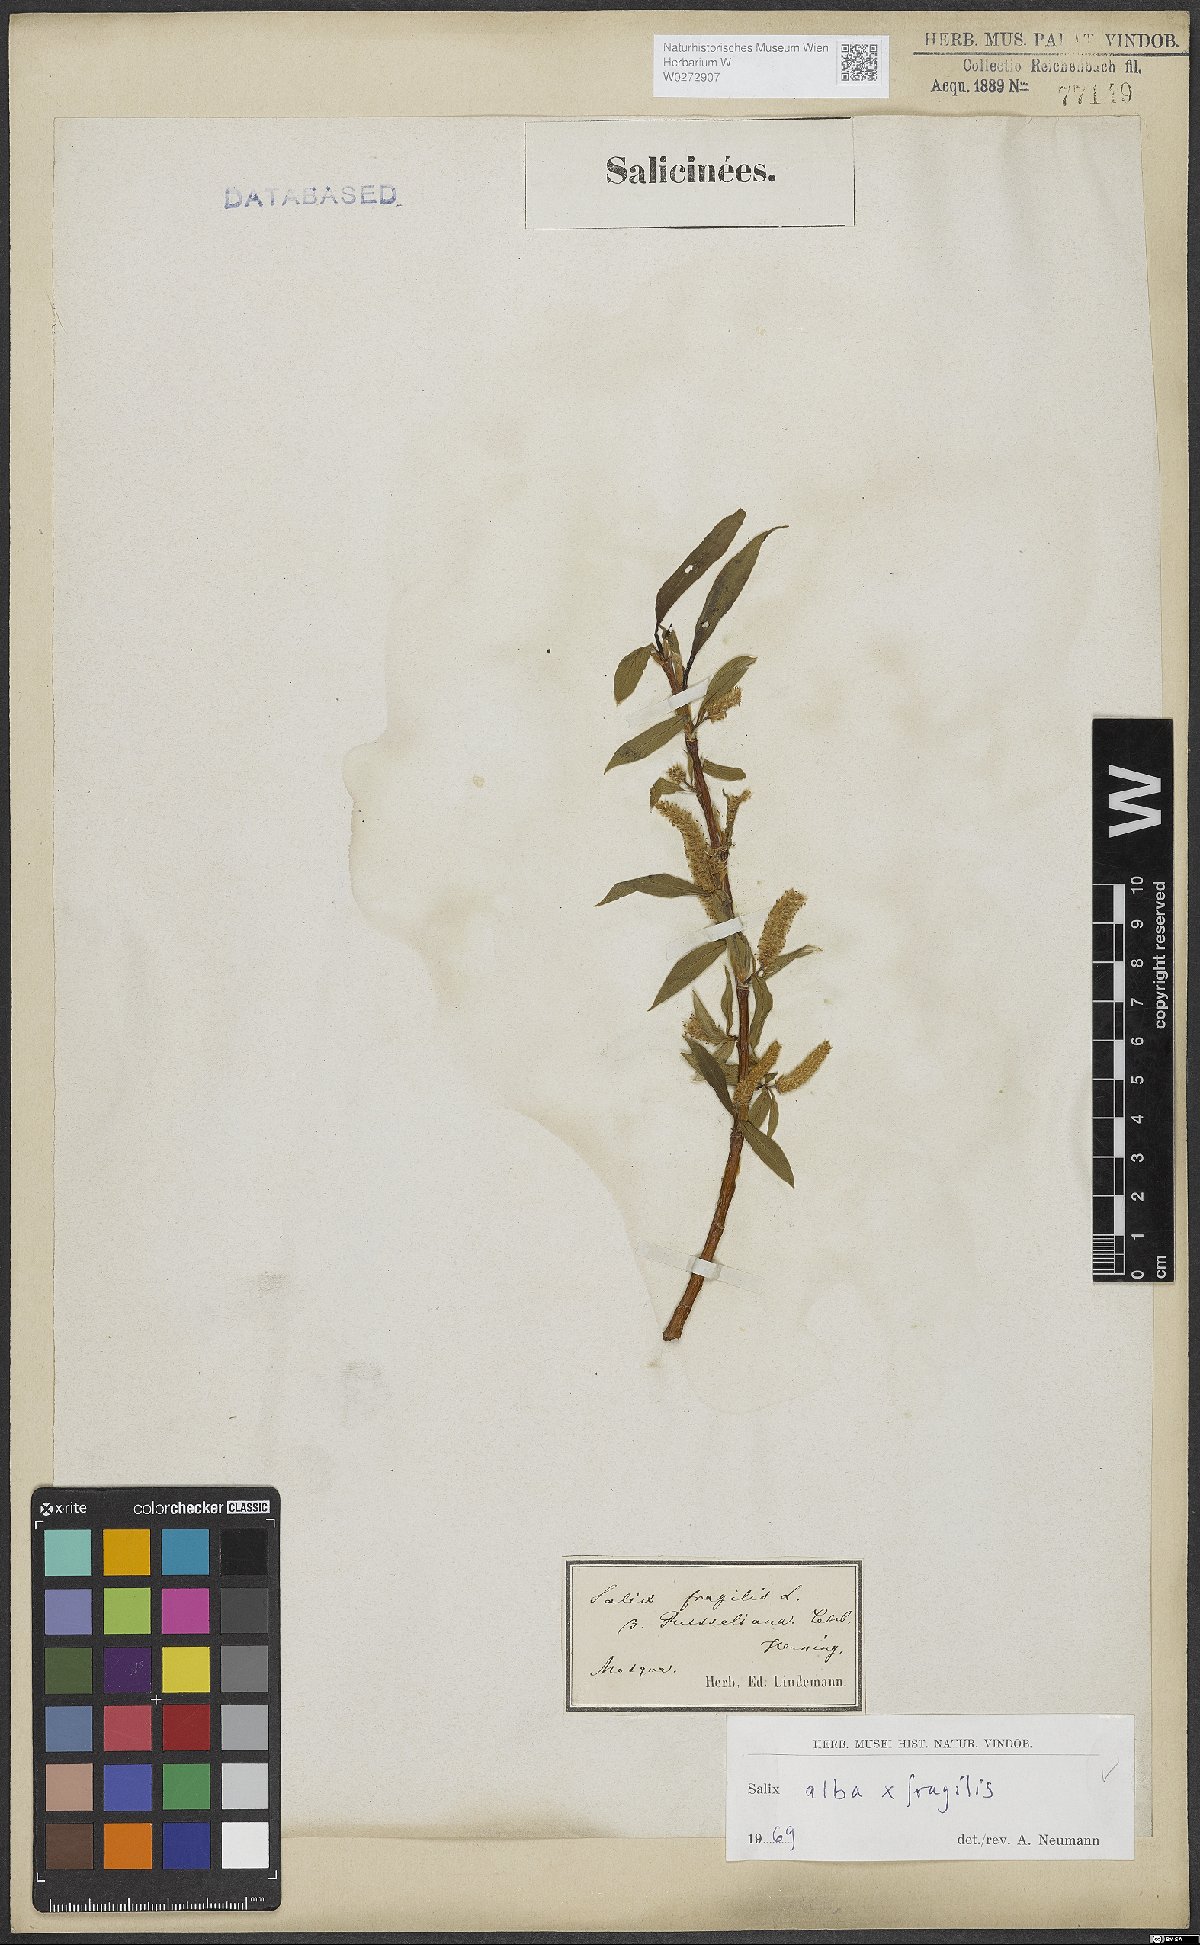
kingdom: Plantae
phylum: Tracheophyta
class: Magnoliopsida
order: Malpighiales
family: Salicaceae
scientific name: Salicaceae
